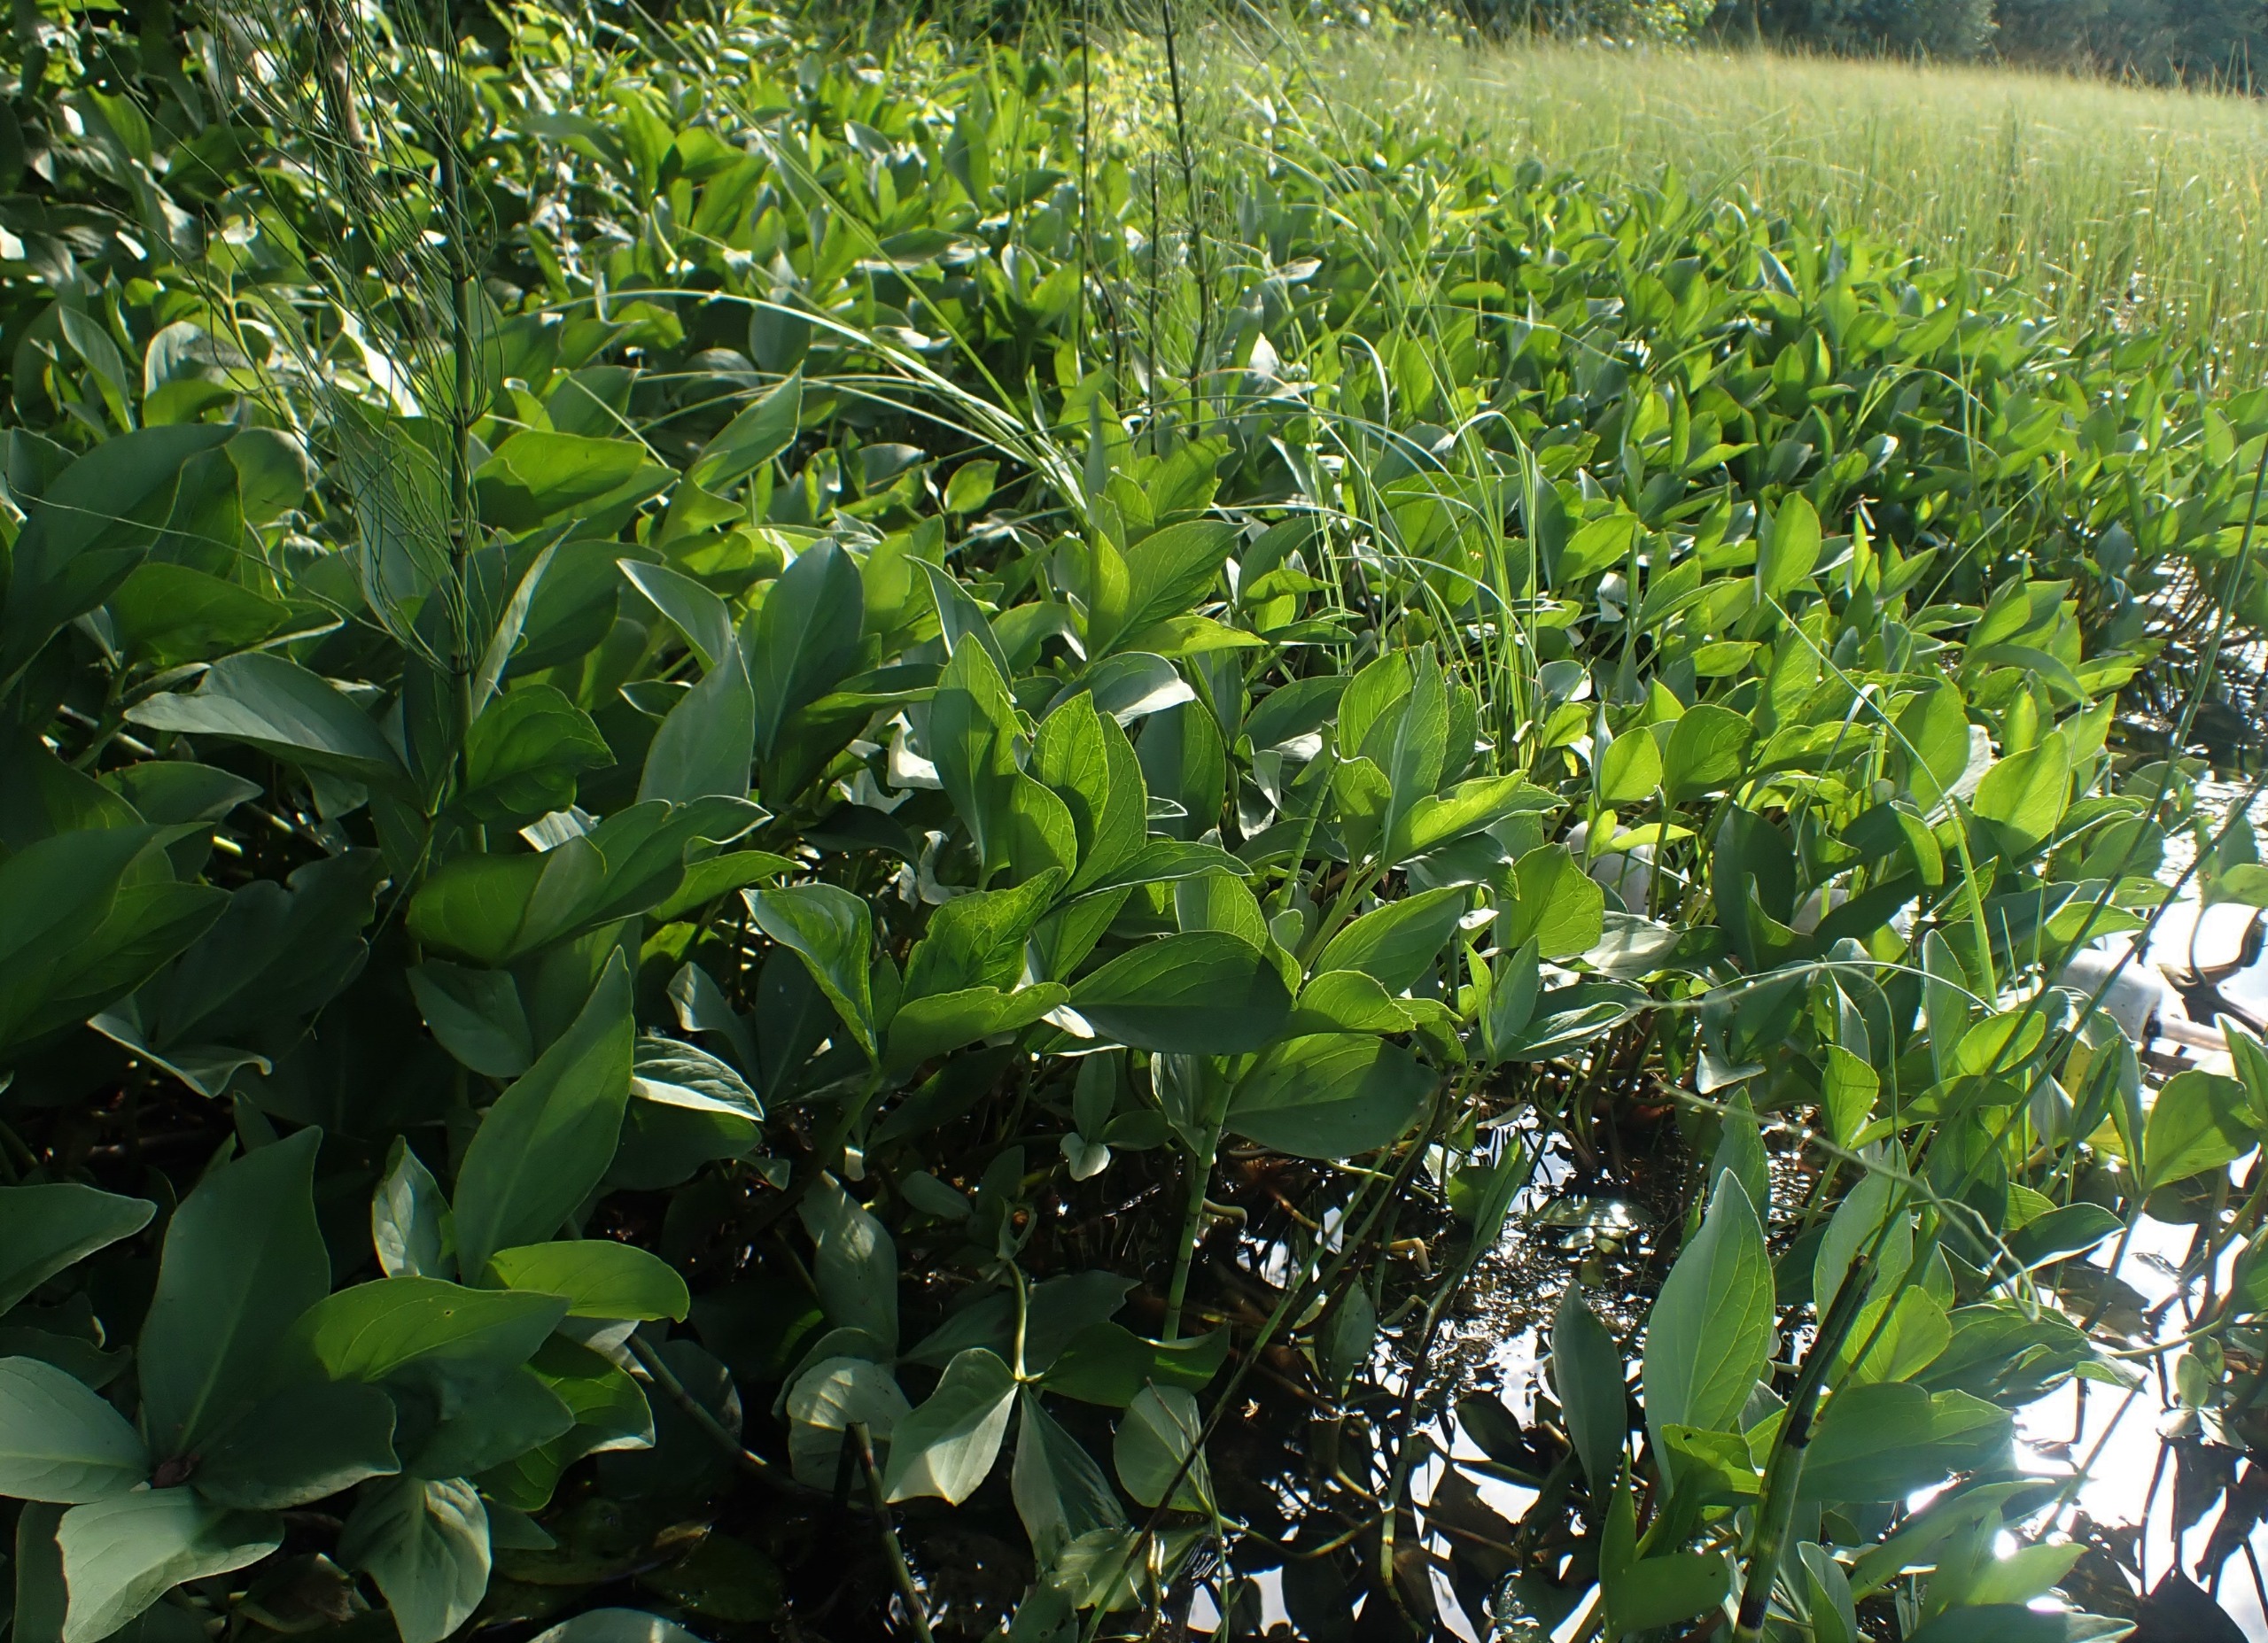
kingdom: Plantae
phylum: Tracheophyta
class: Magnoliopsida
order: Asterales
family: Menyanthaceae
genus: Menyanthes
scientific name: Menyanthes trifoliata
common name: Bukkeblad
